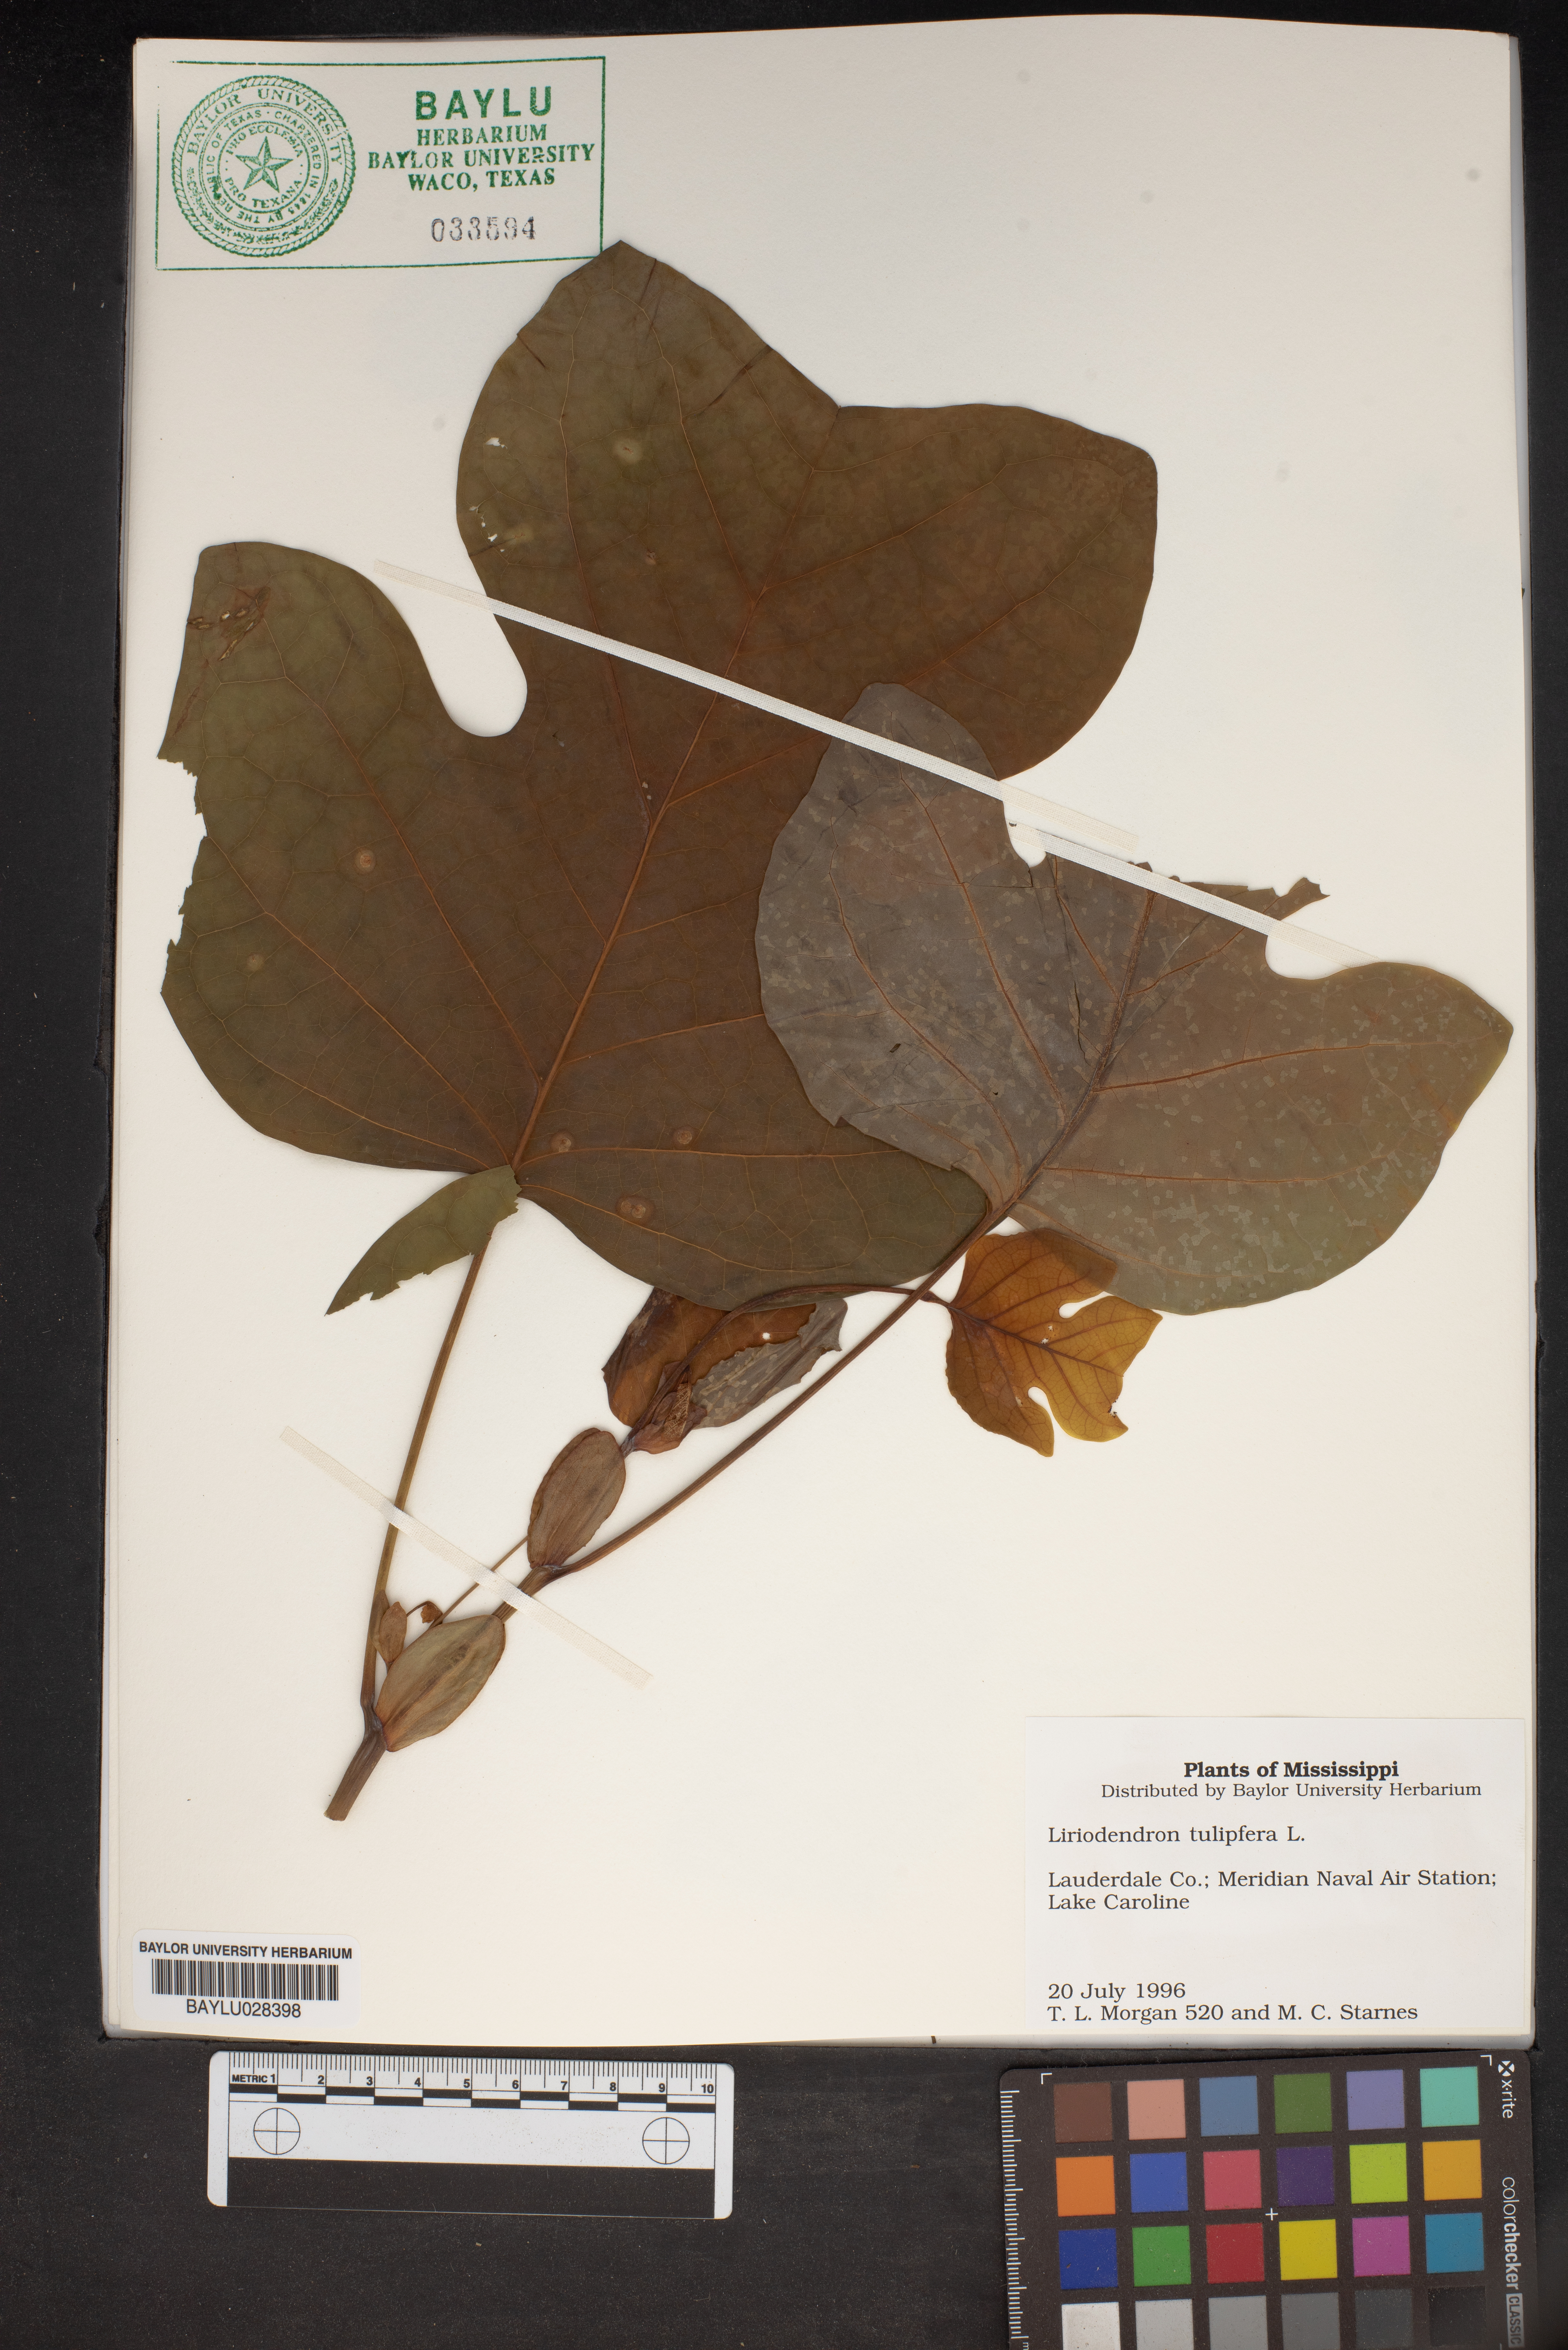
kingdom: Plantae
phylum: Tracheophyta
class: Magnoliopsida
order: Magnoliales
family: Magnoliaceae
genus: Liriodendron
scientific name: Liriodendron tulipifera
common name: Tulip tree
